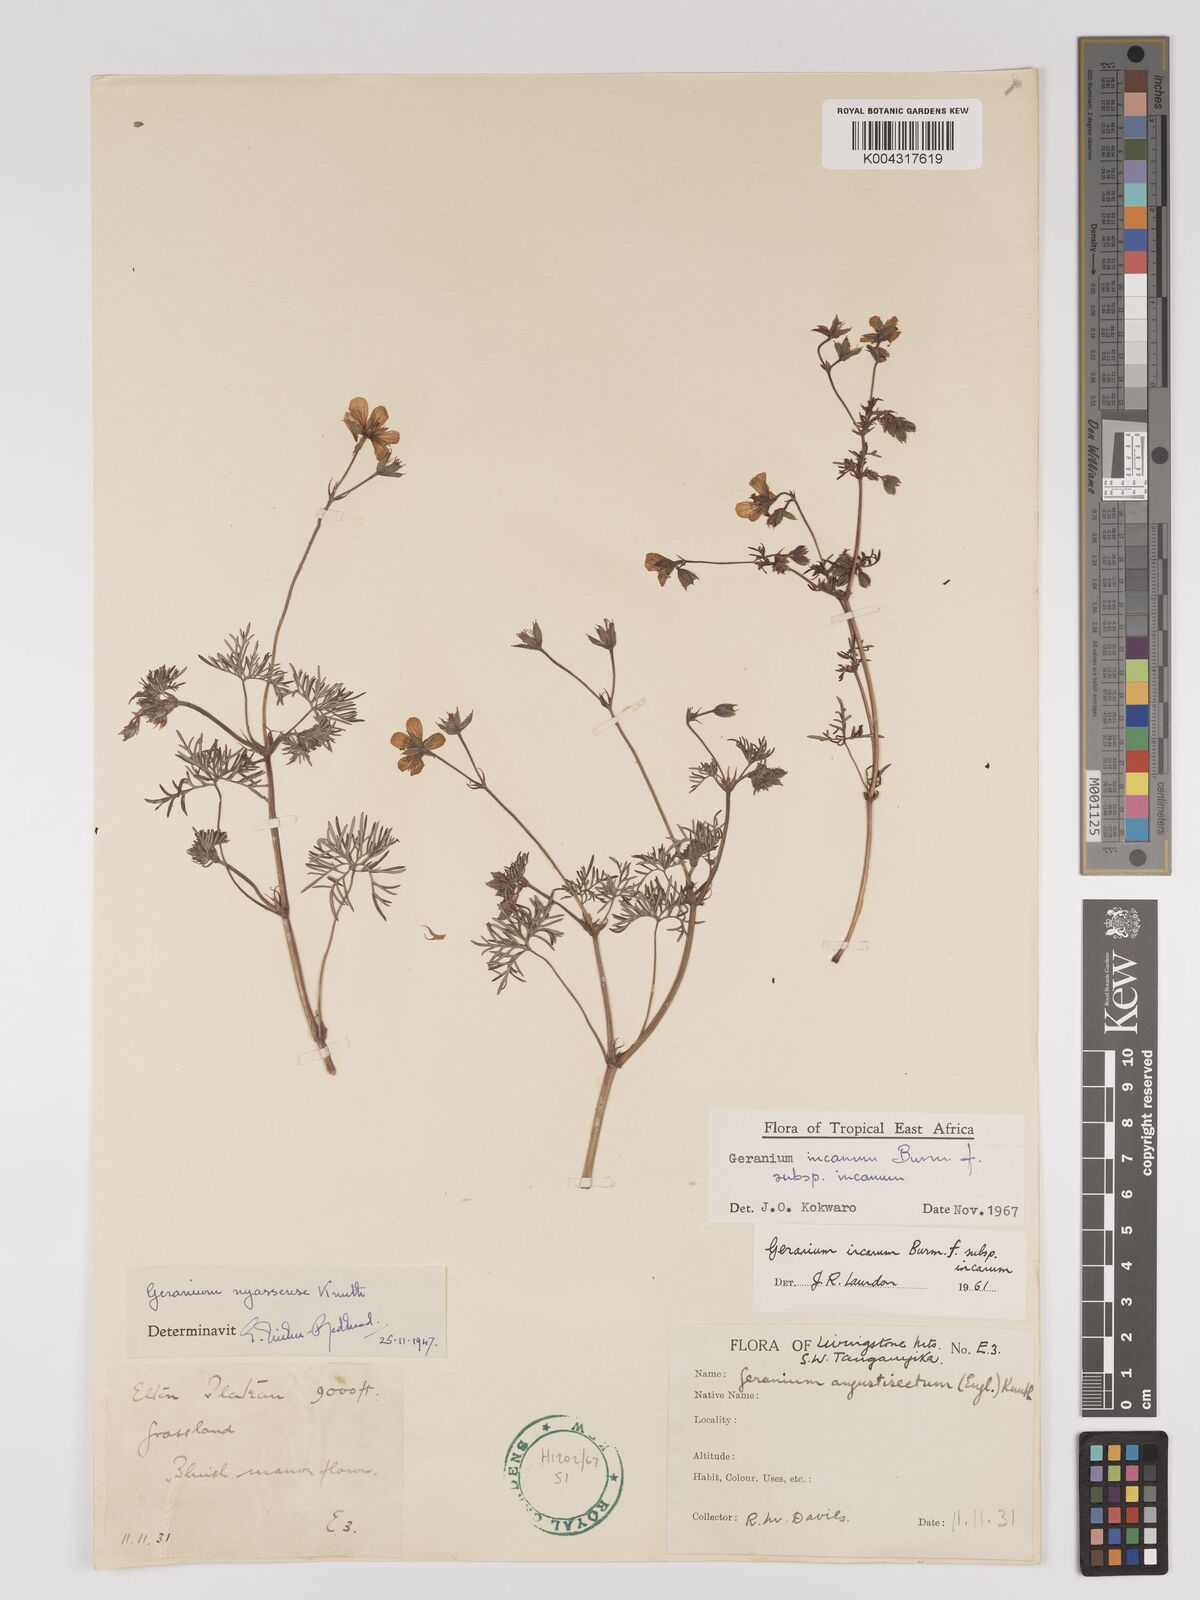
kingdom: Plantae
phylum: Tracheophyta
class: Magnoliopsida
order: Geraniales
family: Geraniaceae
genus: Geranium
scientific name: Geranium incanum
